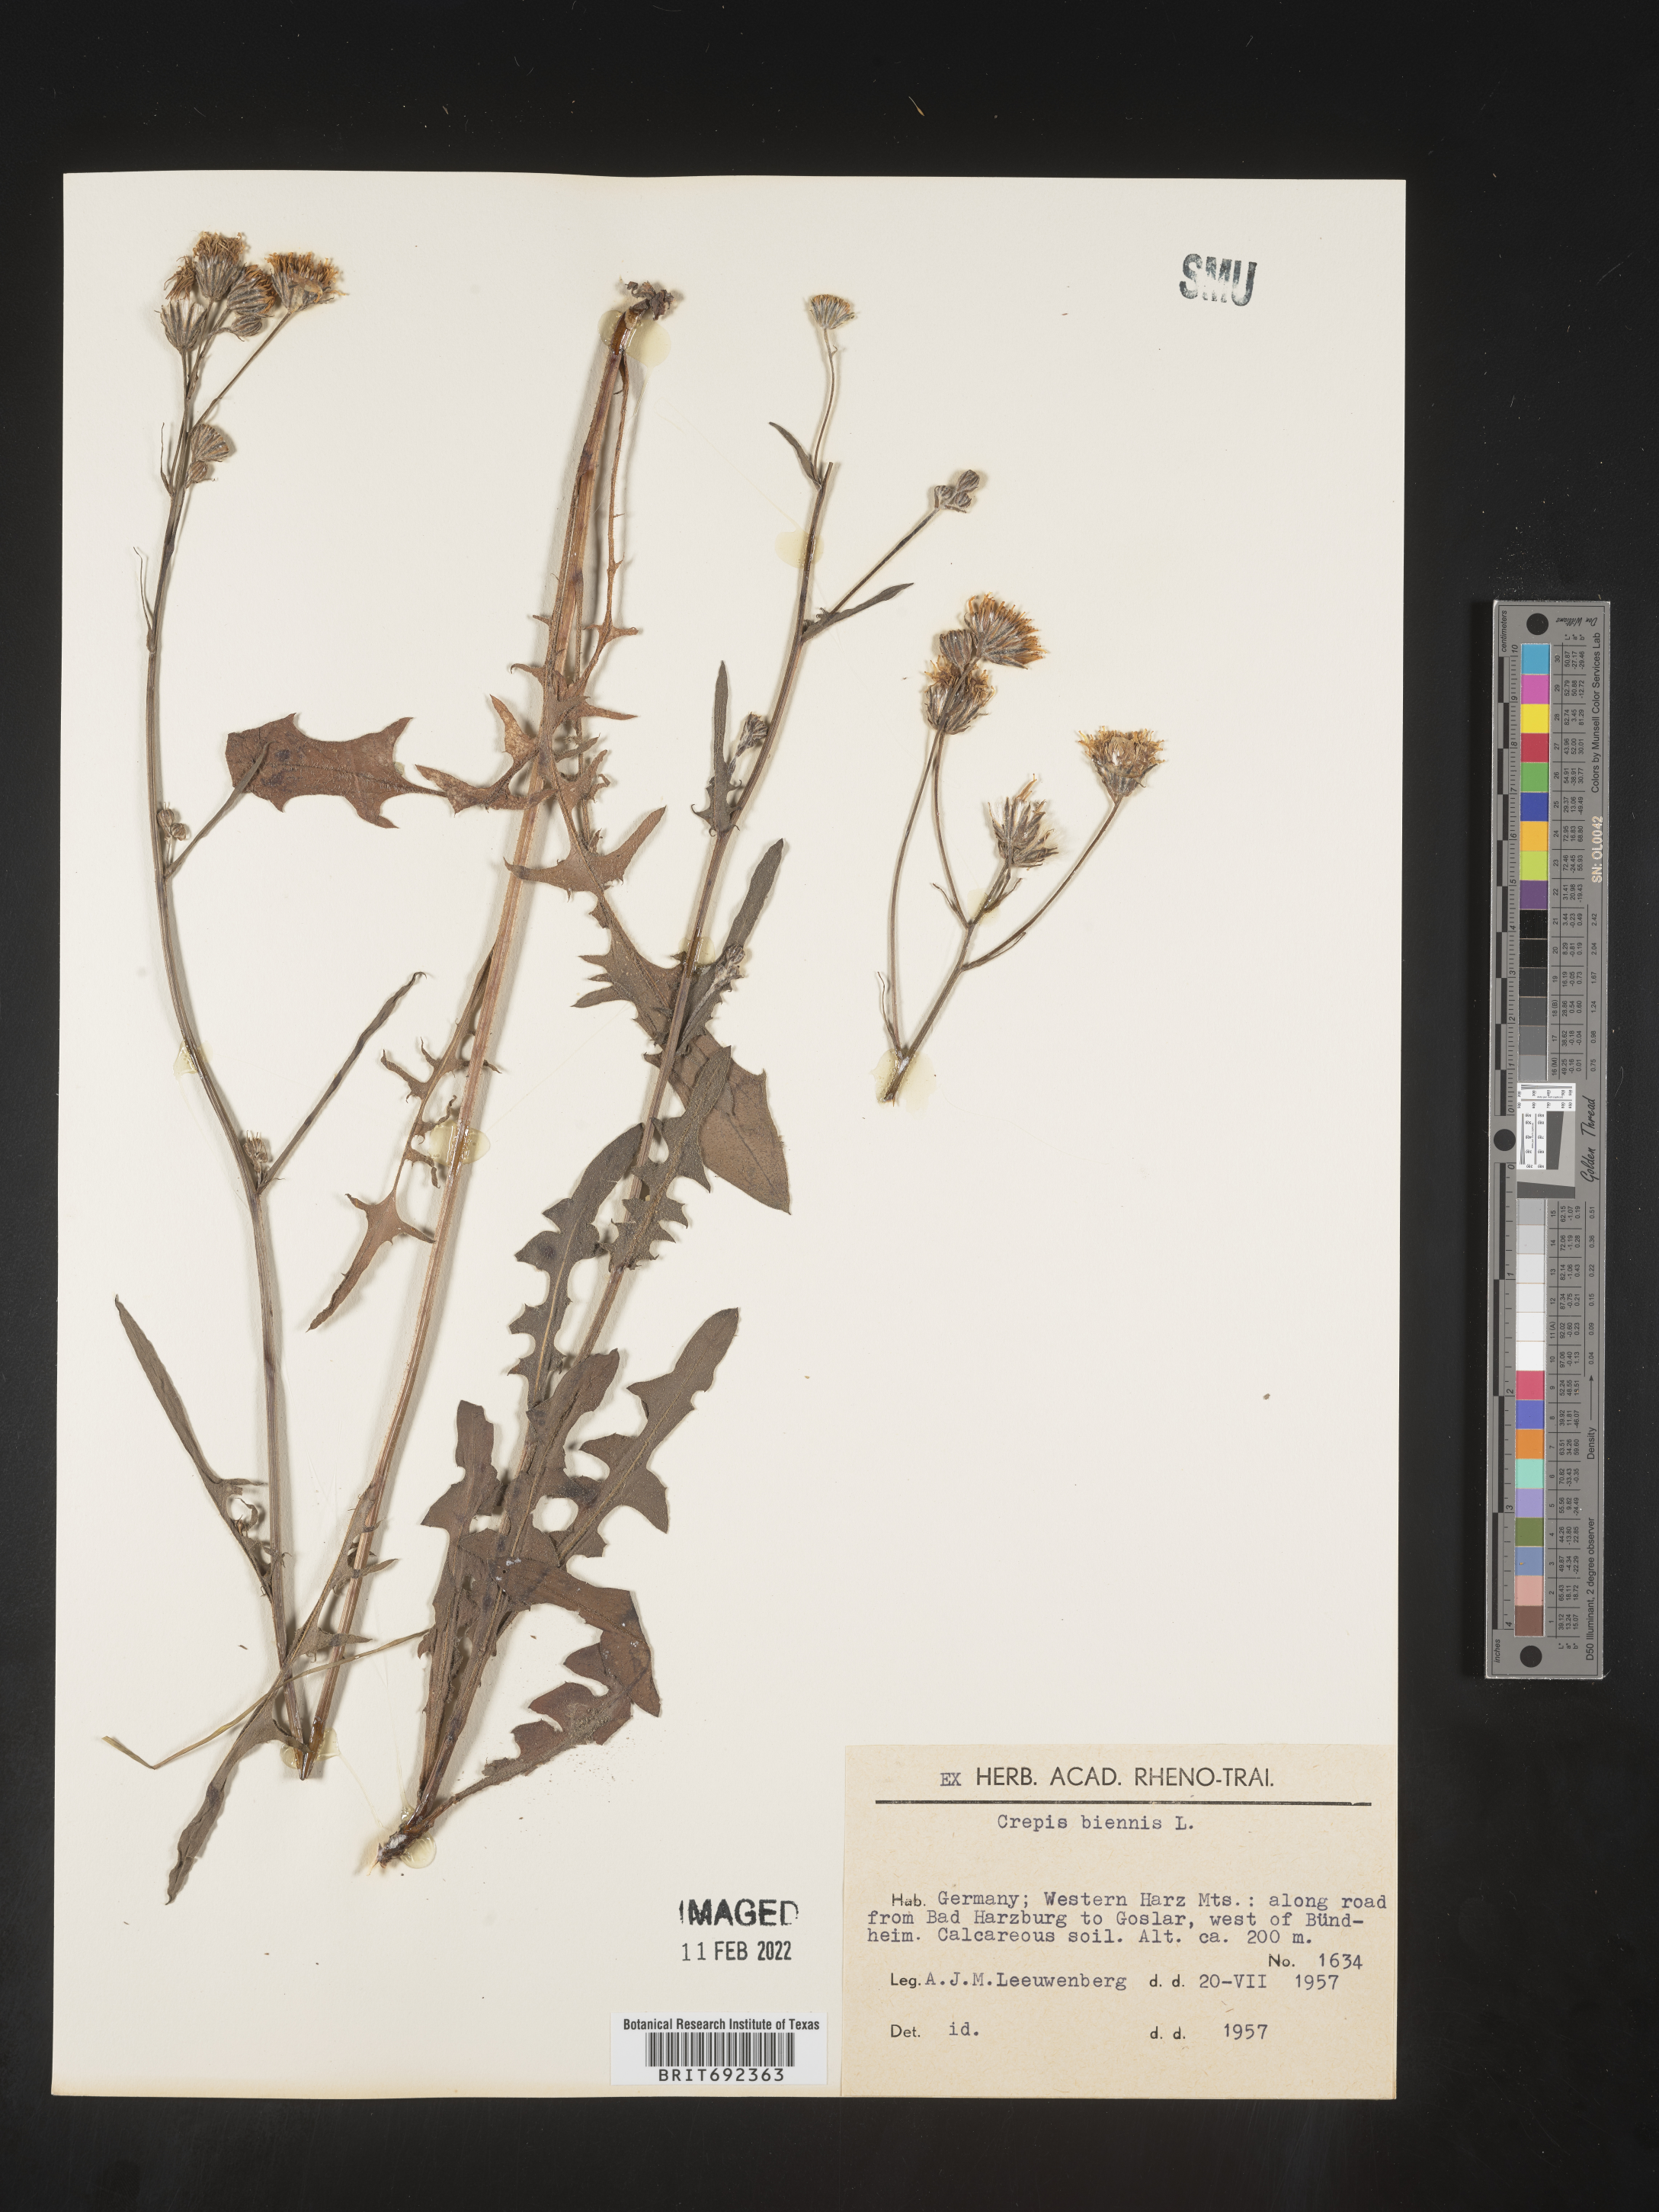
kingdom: Plantae
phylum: Tracheophyta
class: Magnoliopsida
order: Asterales
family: Asteraceae
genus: Crepis
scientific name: Crepis
